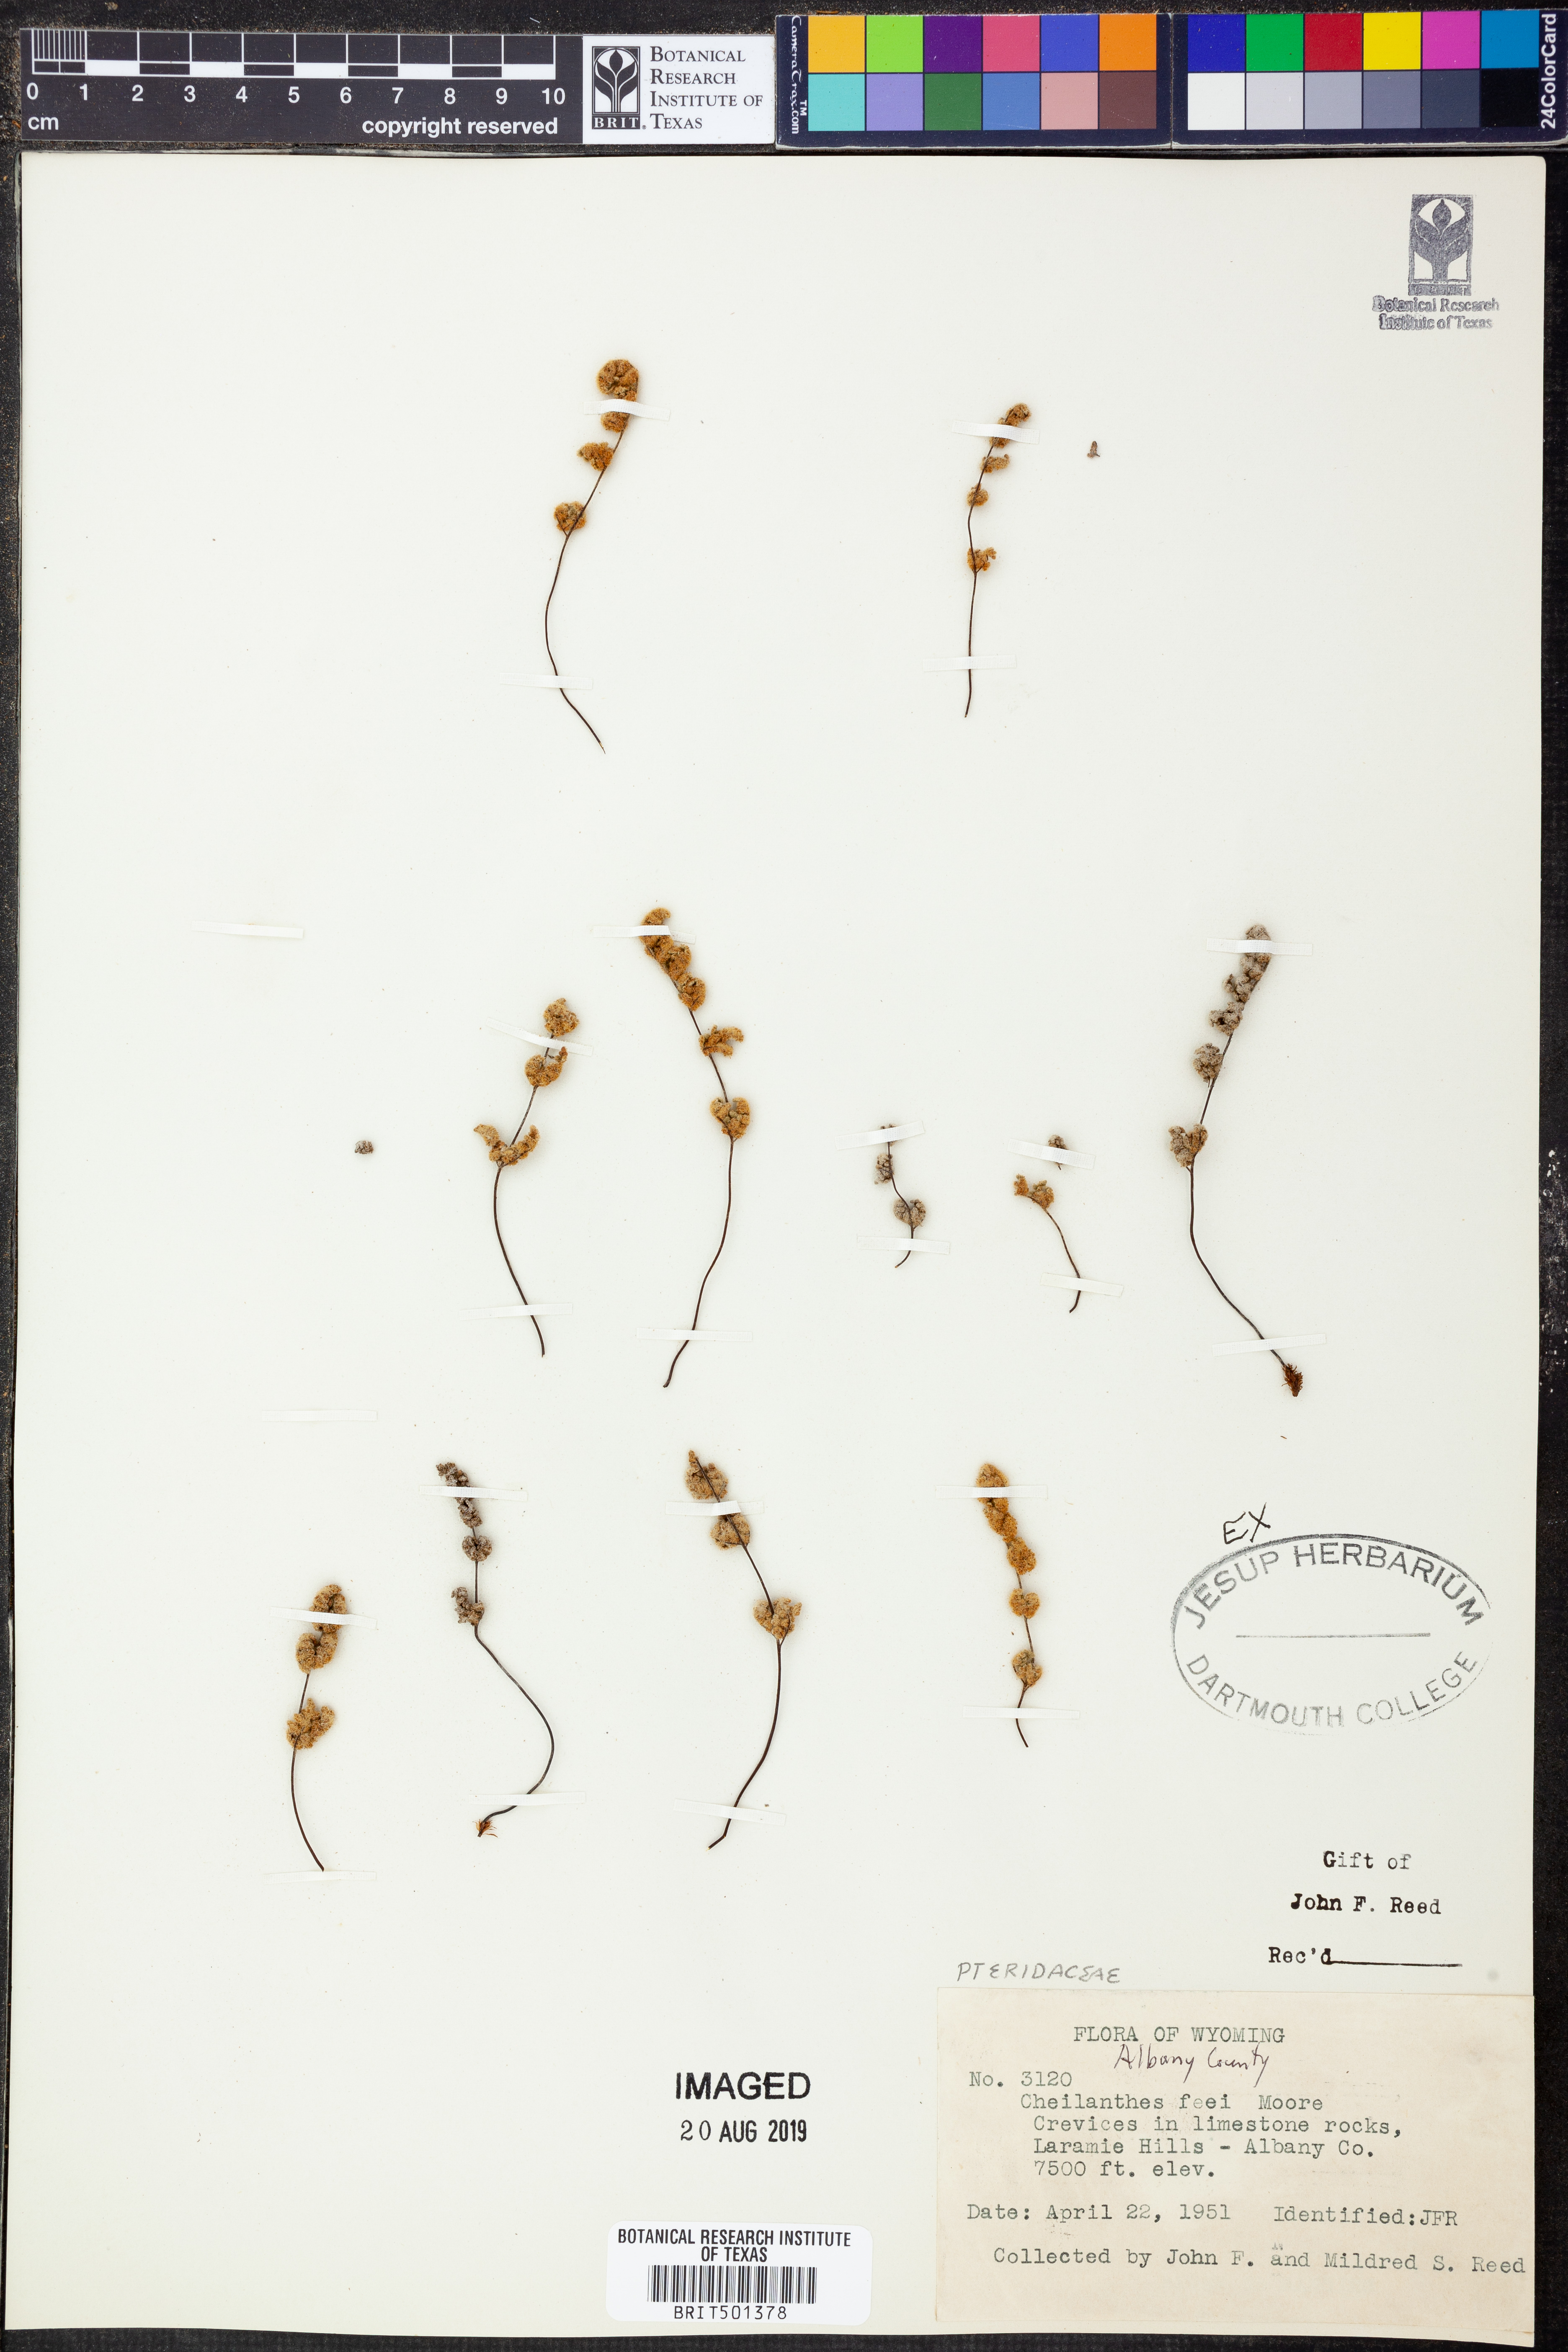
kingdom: Plantae
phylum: Tracheophyta
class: Polypodiopsida
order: Polypodiales
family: Pteridaceae
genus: Myriopteris
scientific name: Myriopteris gracilis
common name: Fee's lip fern
